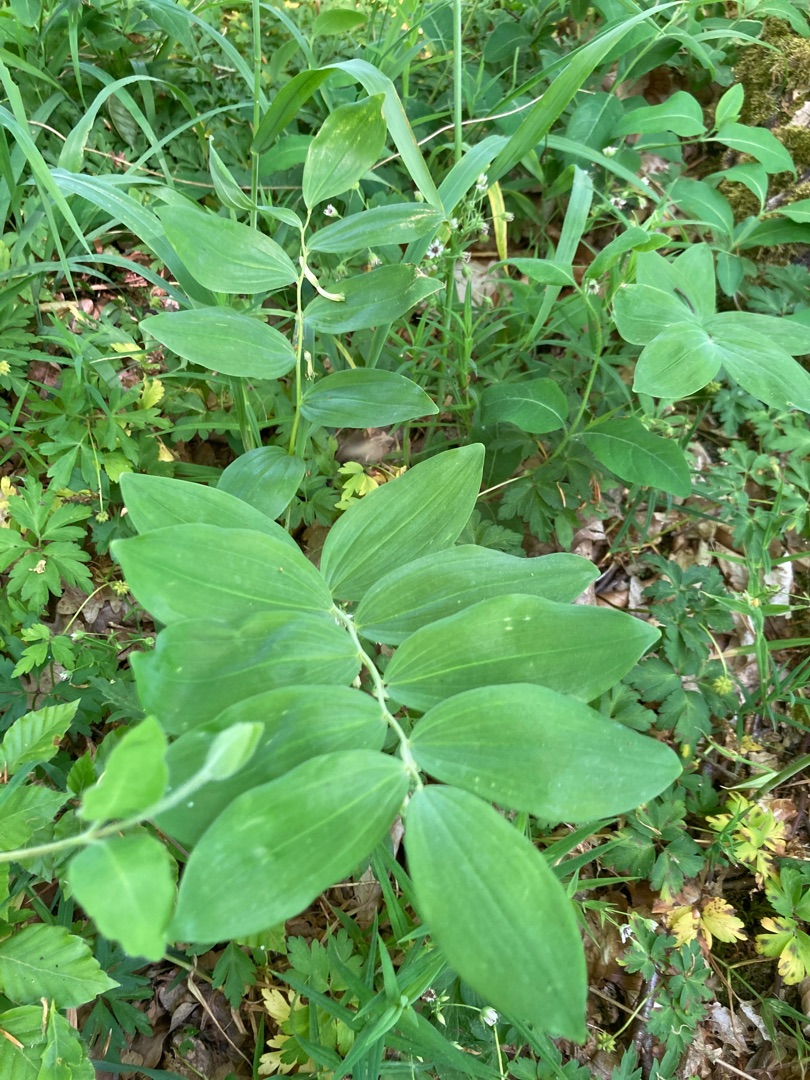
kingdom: Plantae
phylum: Tracheophyta
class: Liliopsida
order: Asparagales
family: Asparagaceae
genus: Polygonatum
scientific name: Polygonatum multiflorum
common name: Stor konval
